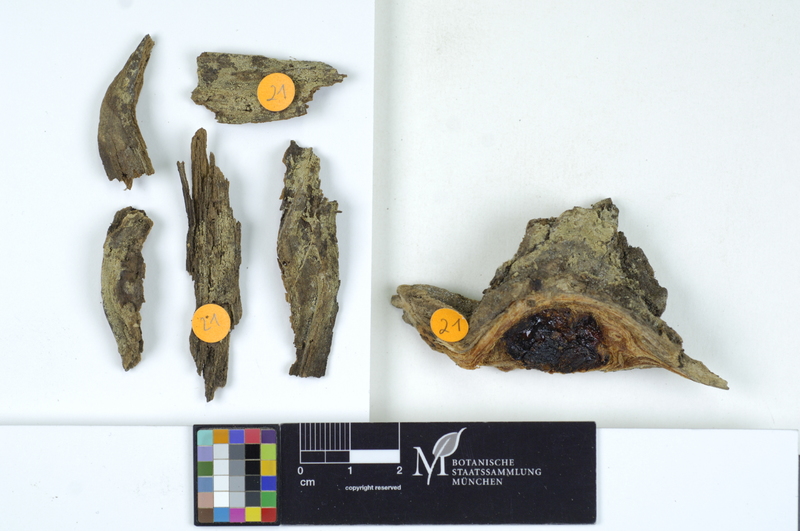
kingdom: Plantae
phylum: Tracheophyta
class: Pinopsida
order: Pinales
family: Pinaceae
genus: Pinus
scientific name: Pinus
